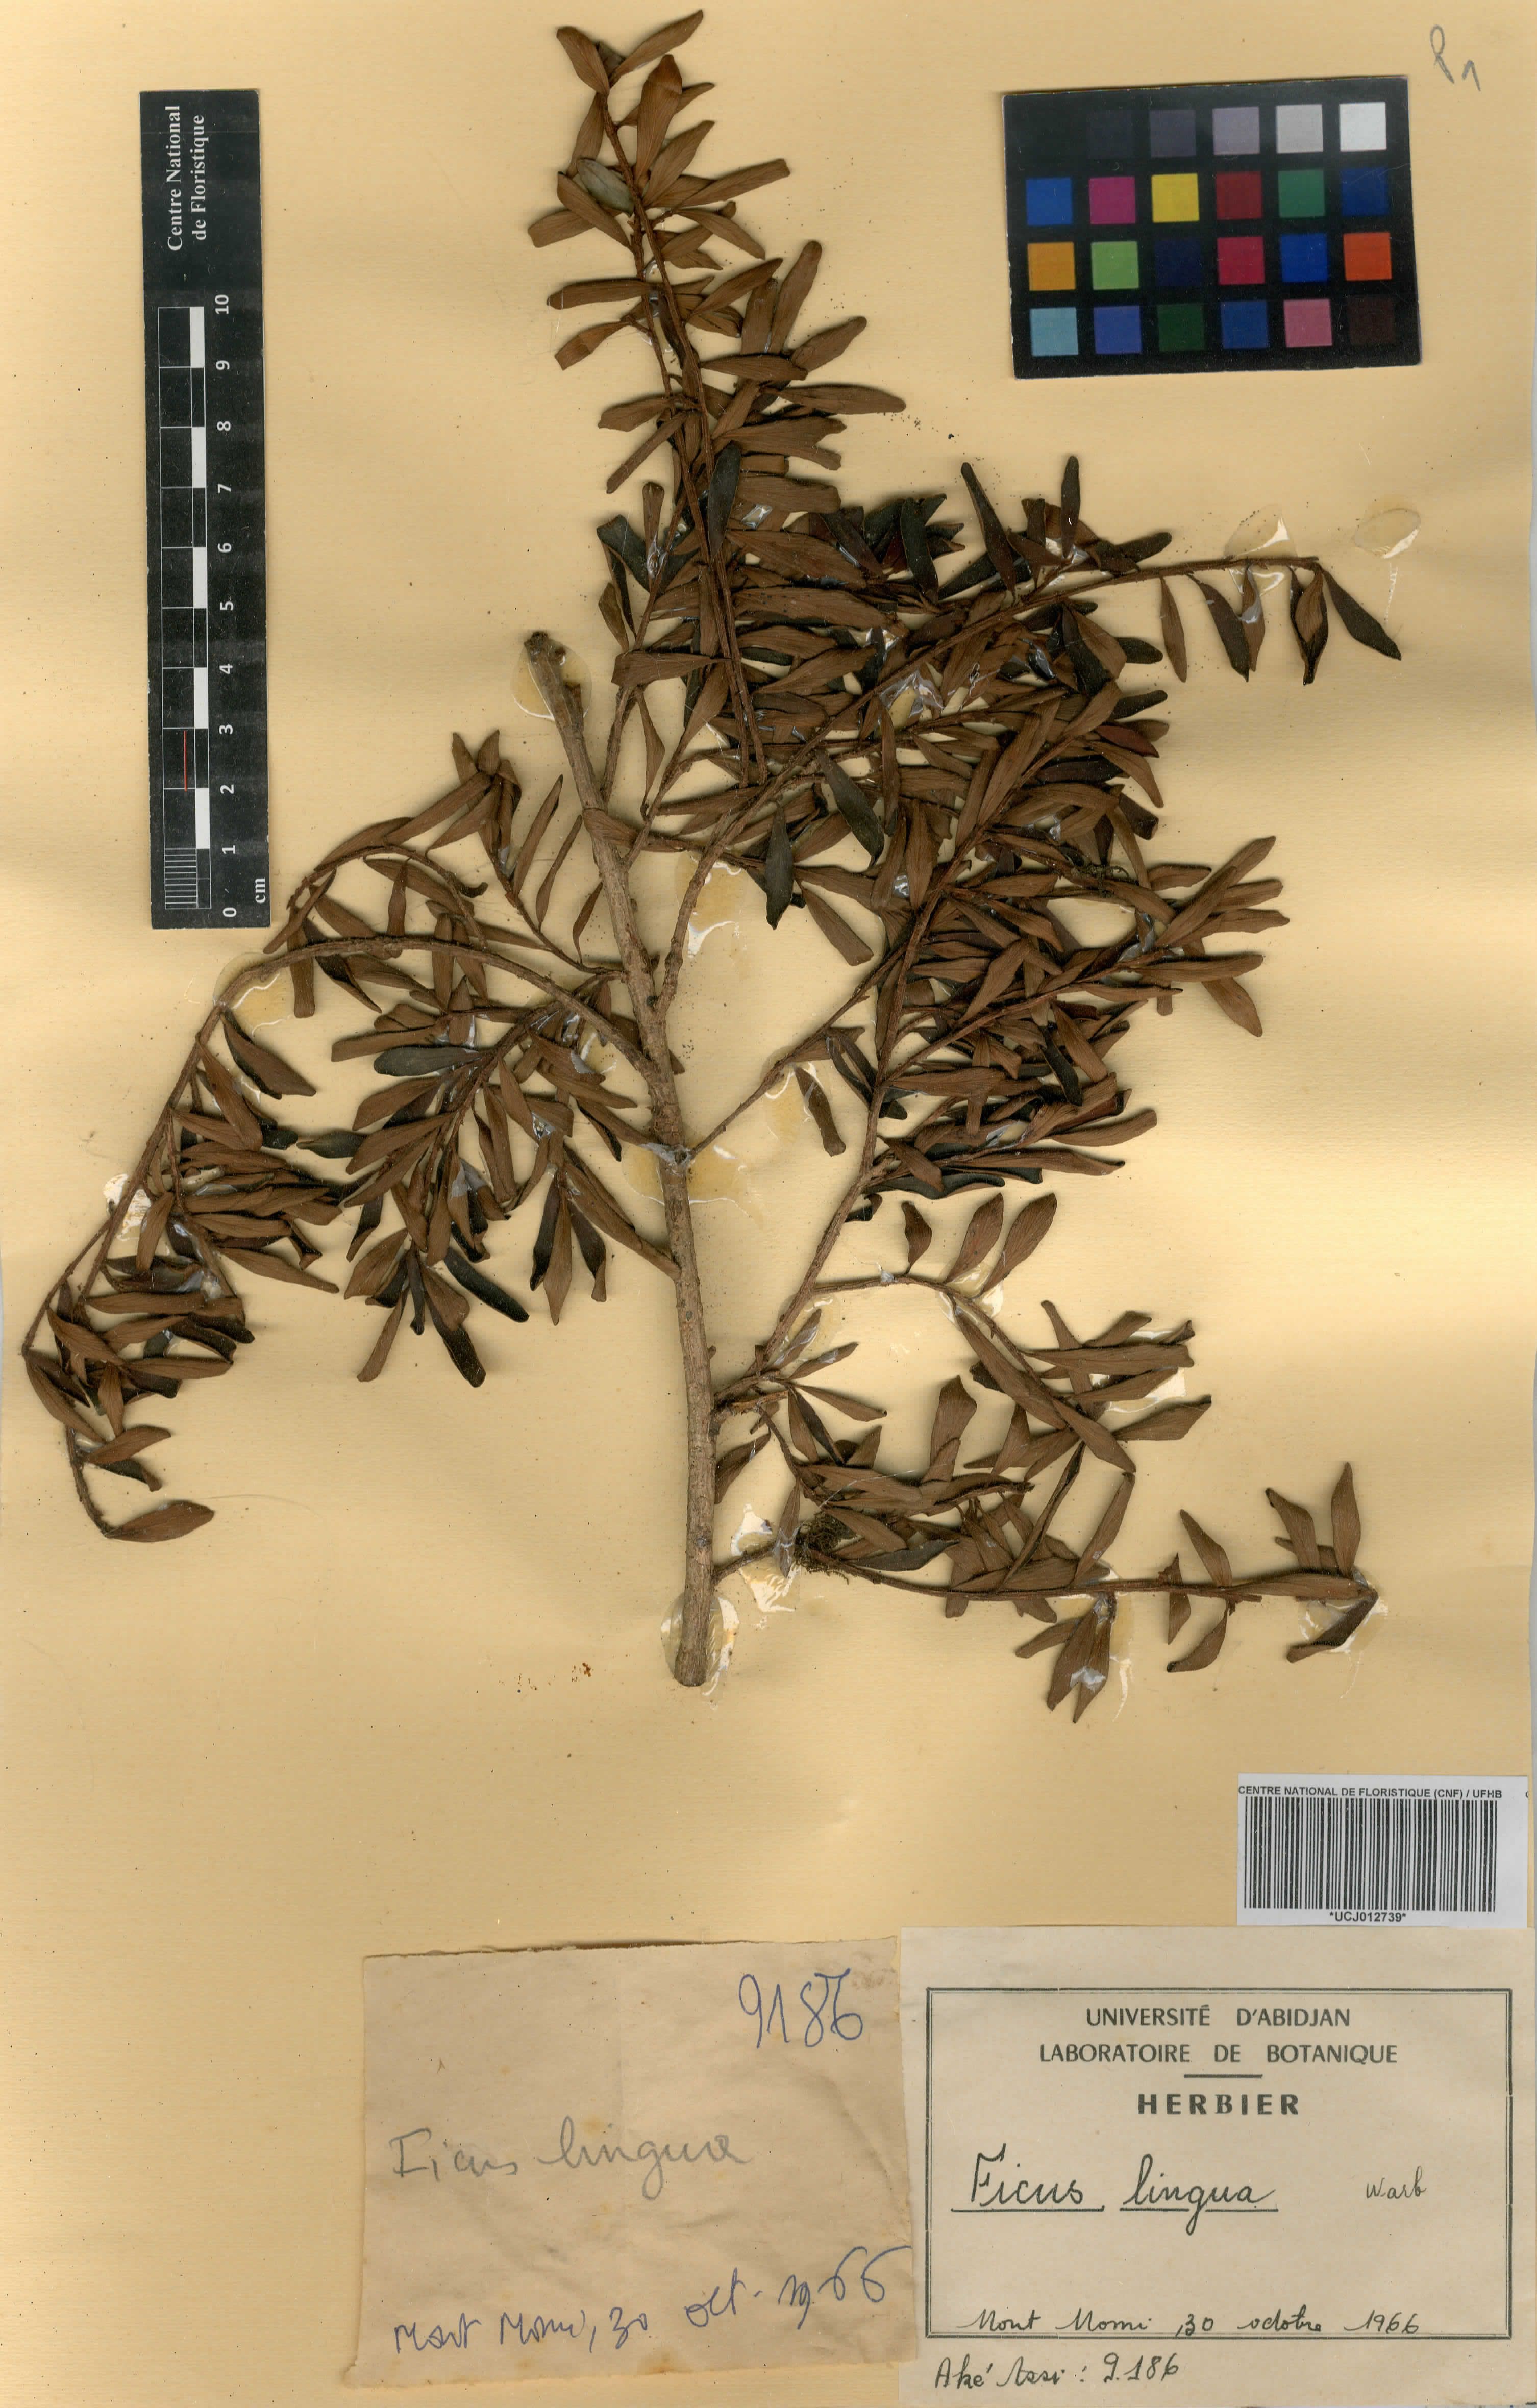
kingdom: Plantae
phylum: Tracheophyta
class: Magnoliopsida
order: Rosales
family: Moraceae
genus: Ficus
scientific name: Ficus lingua
